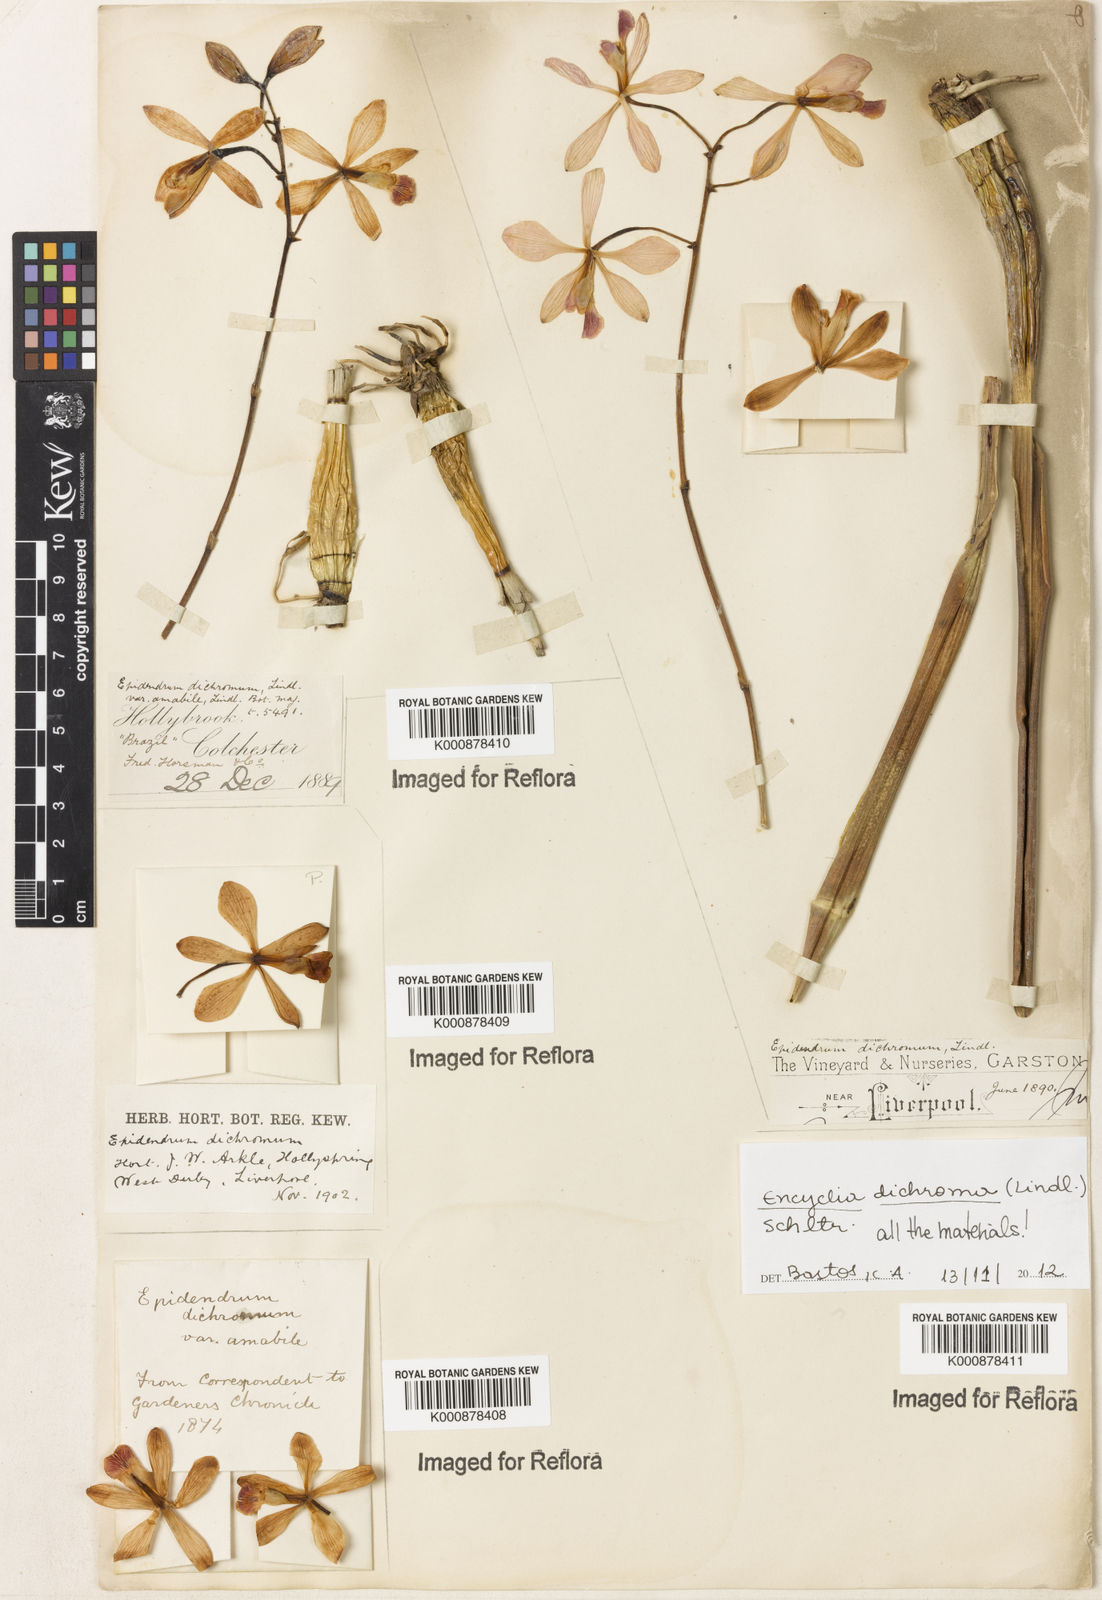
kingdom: Plantae
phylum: Tracheophyta
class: Liliopsida
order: Asparagales
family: Orchidaceae
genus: Encyclia
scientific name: Encyclia cordigera
